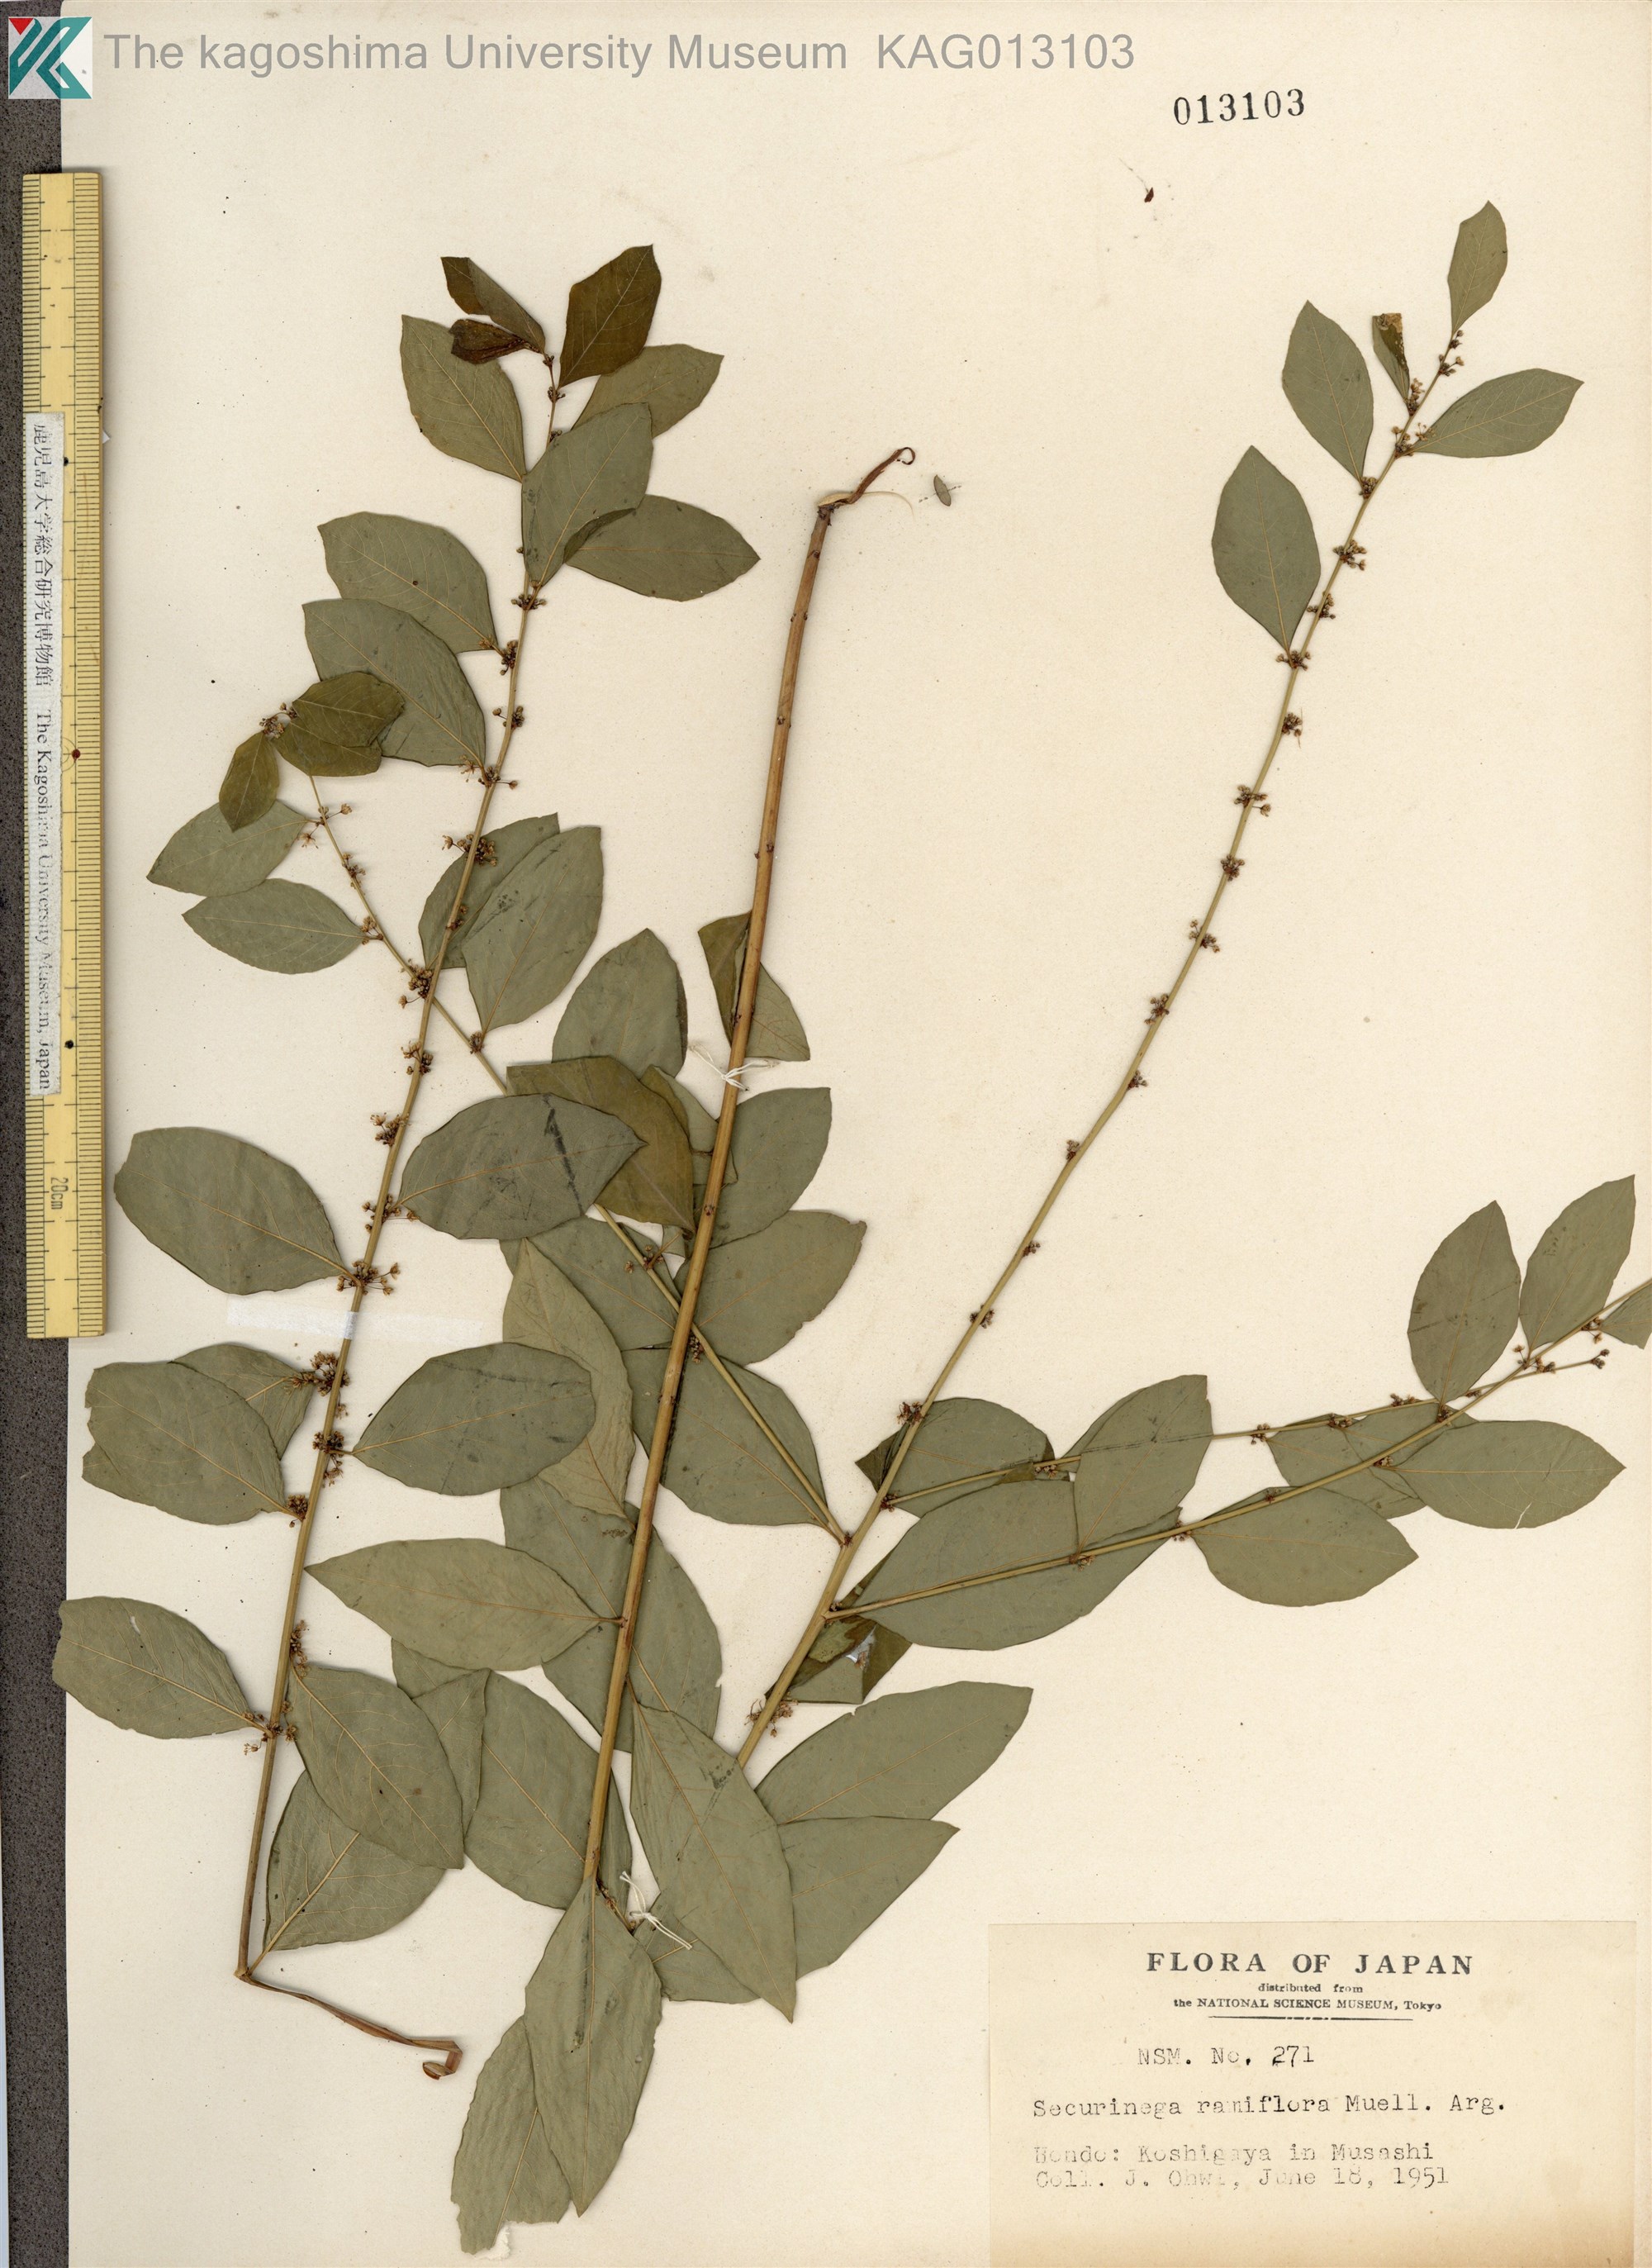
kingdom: Plantae
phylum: Tracheophyta
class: Magnoliopsida
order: Malpighiales
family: Phyllanthaceae
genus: Flueggea
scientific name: Flueggea suffruticosa
